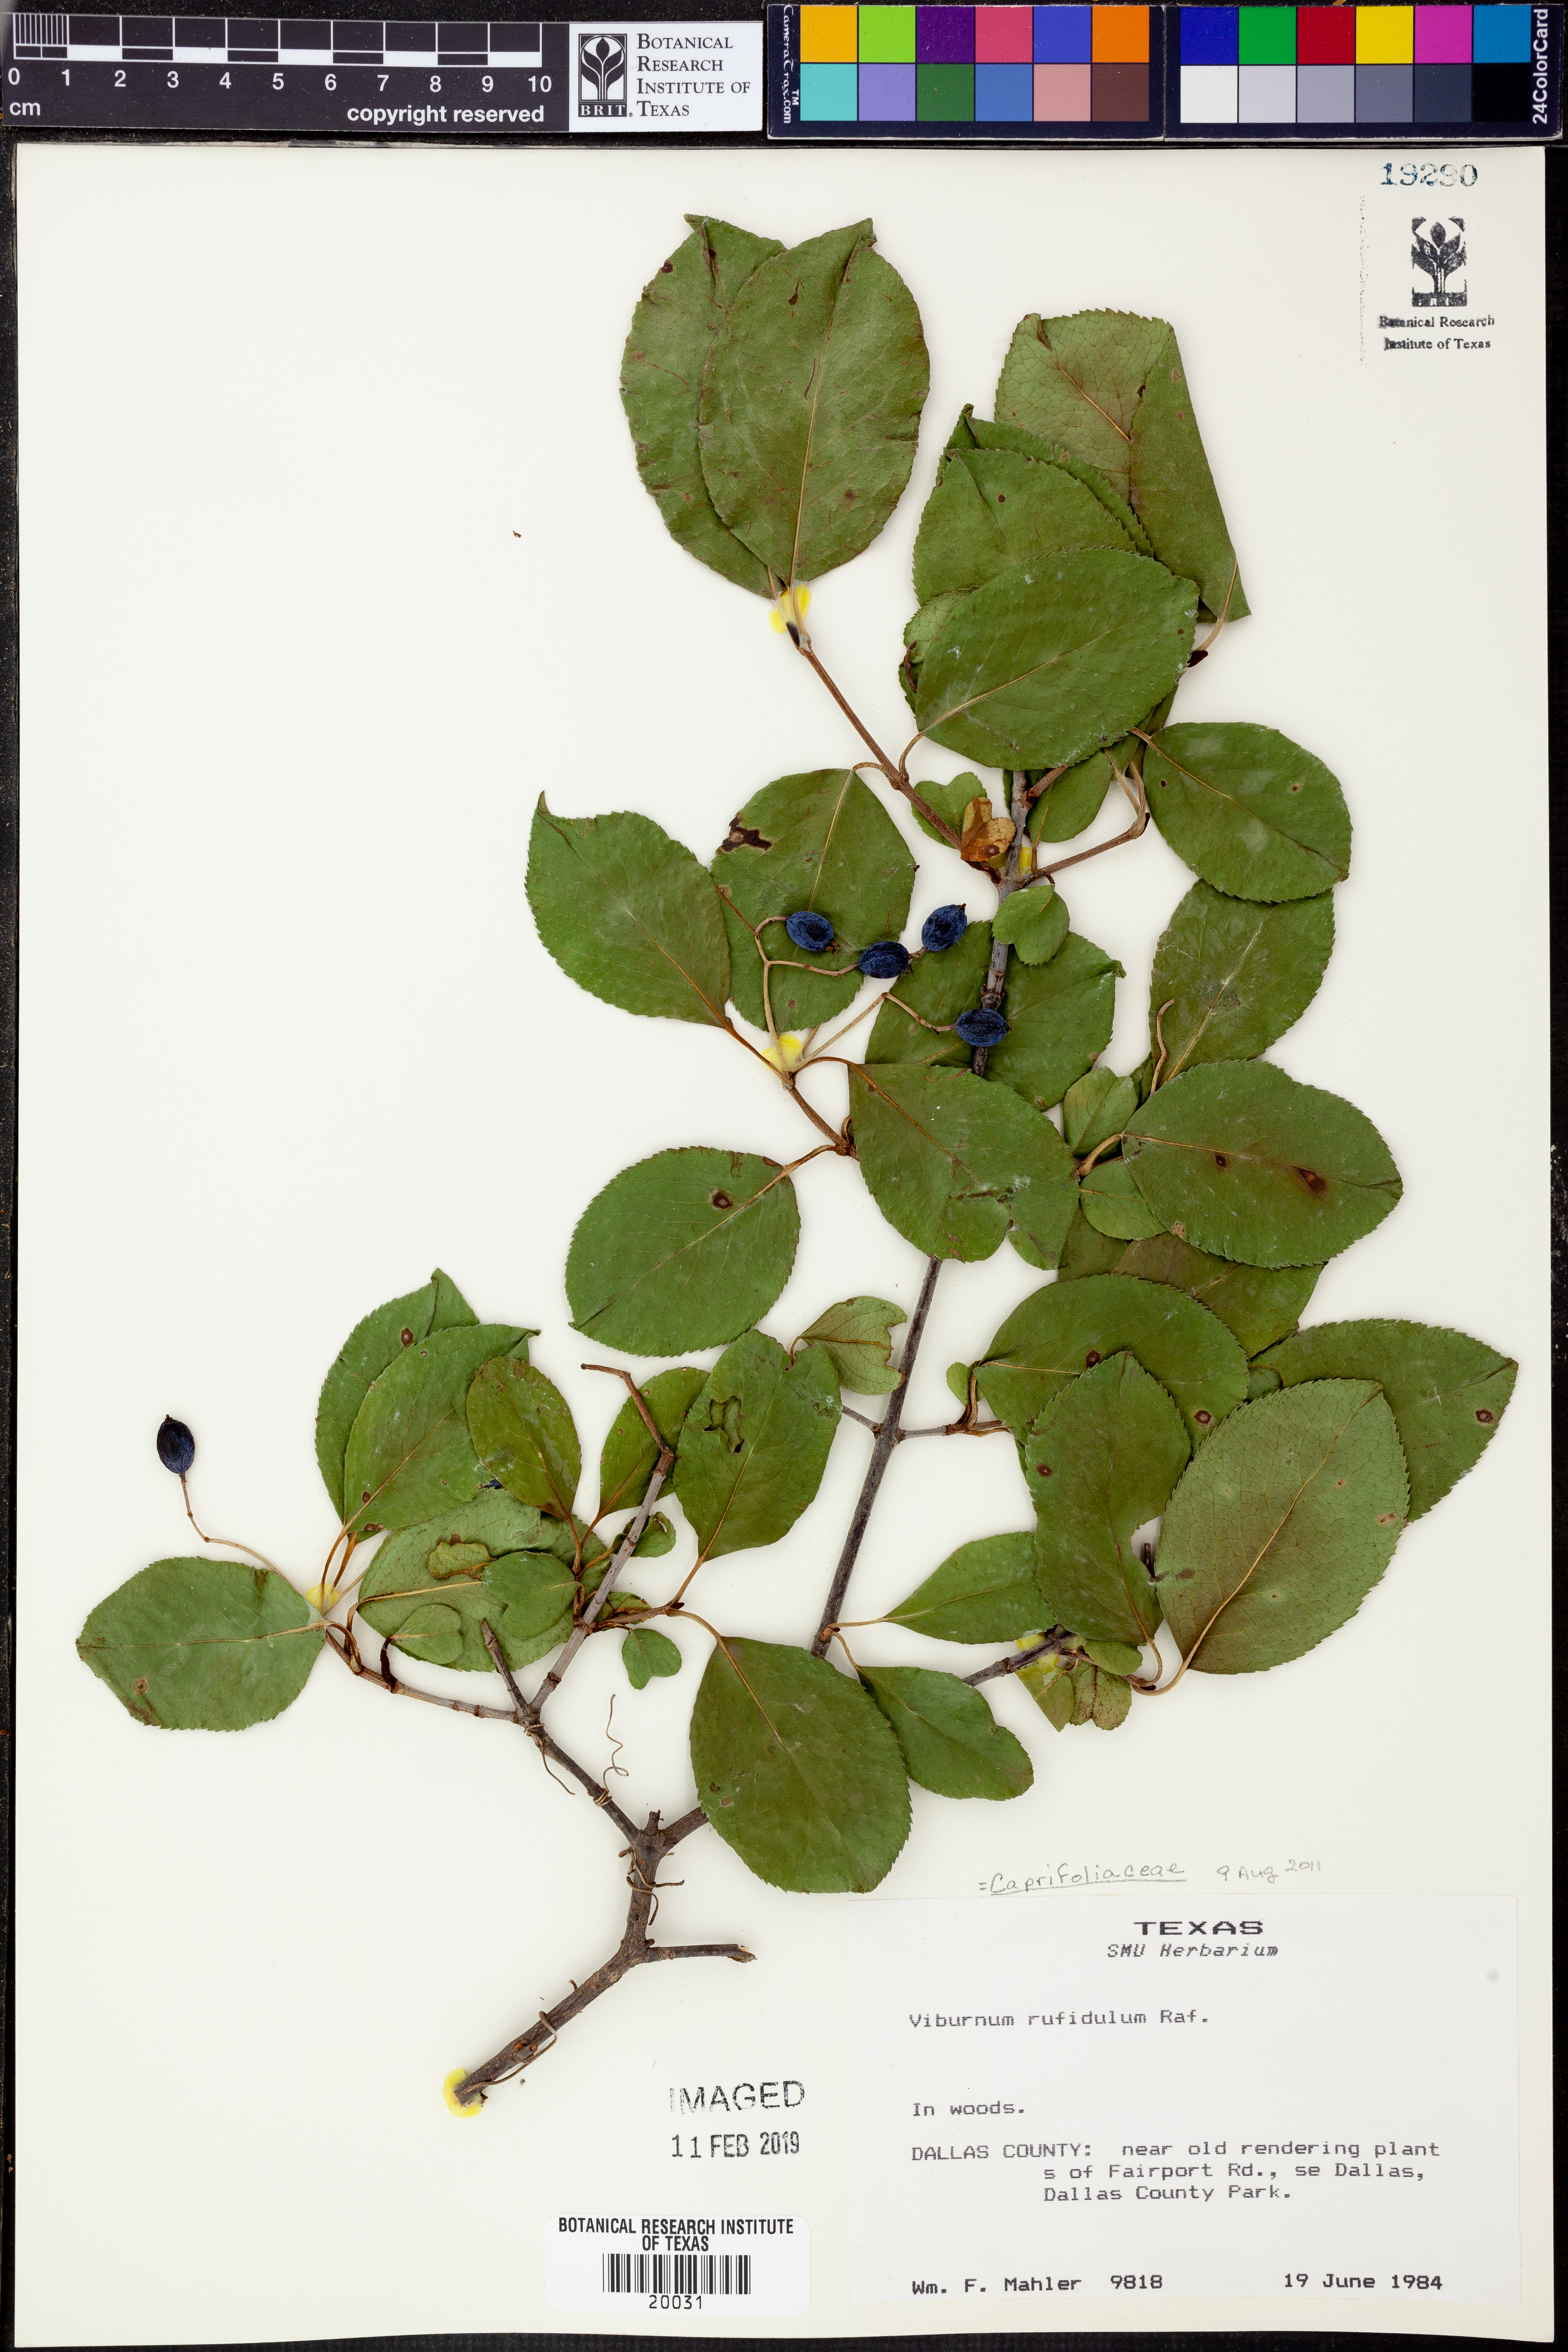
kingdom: Plantae
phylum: Tracheophyta
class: Magnoliopsida
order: Dipsacales
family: Viburnaceae
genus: Viburnum
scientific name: Viburnum rufidulum
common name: Blue haw
